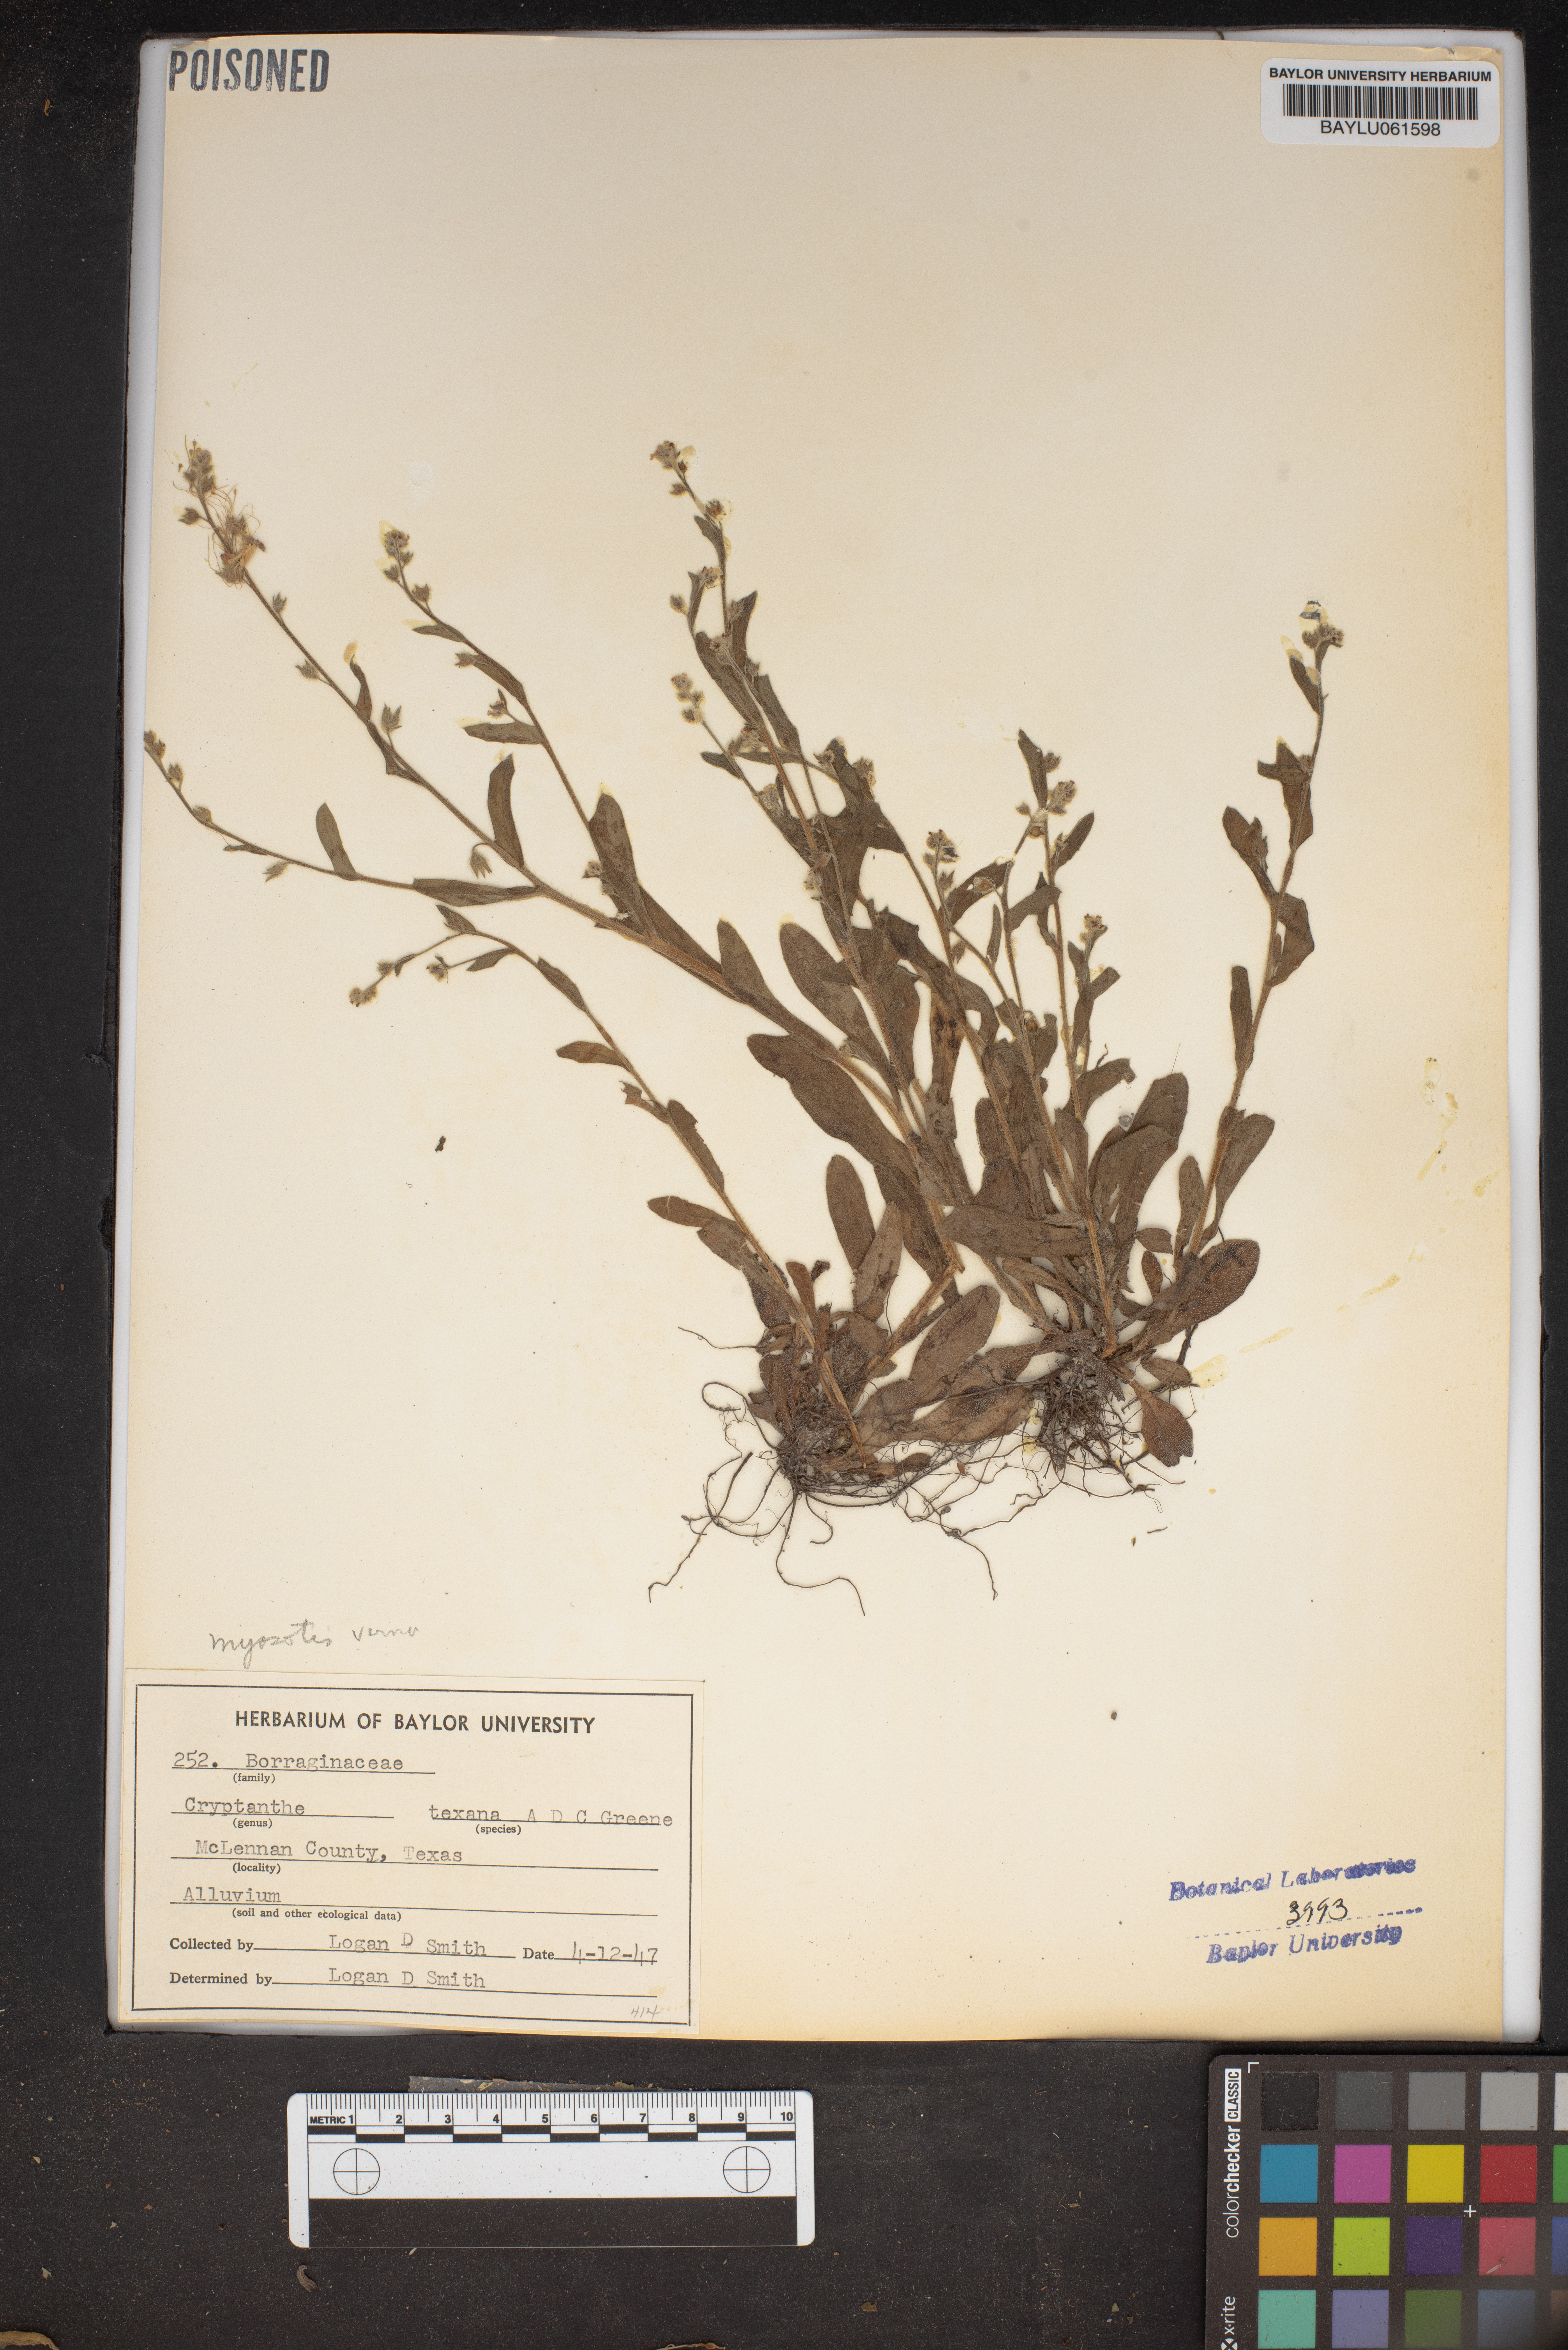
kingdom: Plantae
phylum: Tracheophyta
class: Magnoliopsida
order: Boraginales
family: Boraginaceae
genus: Cryptantha
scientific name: Cryptantha texana
